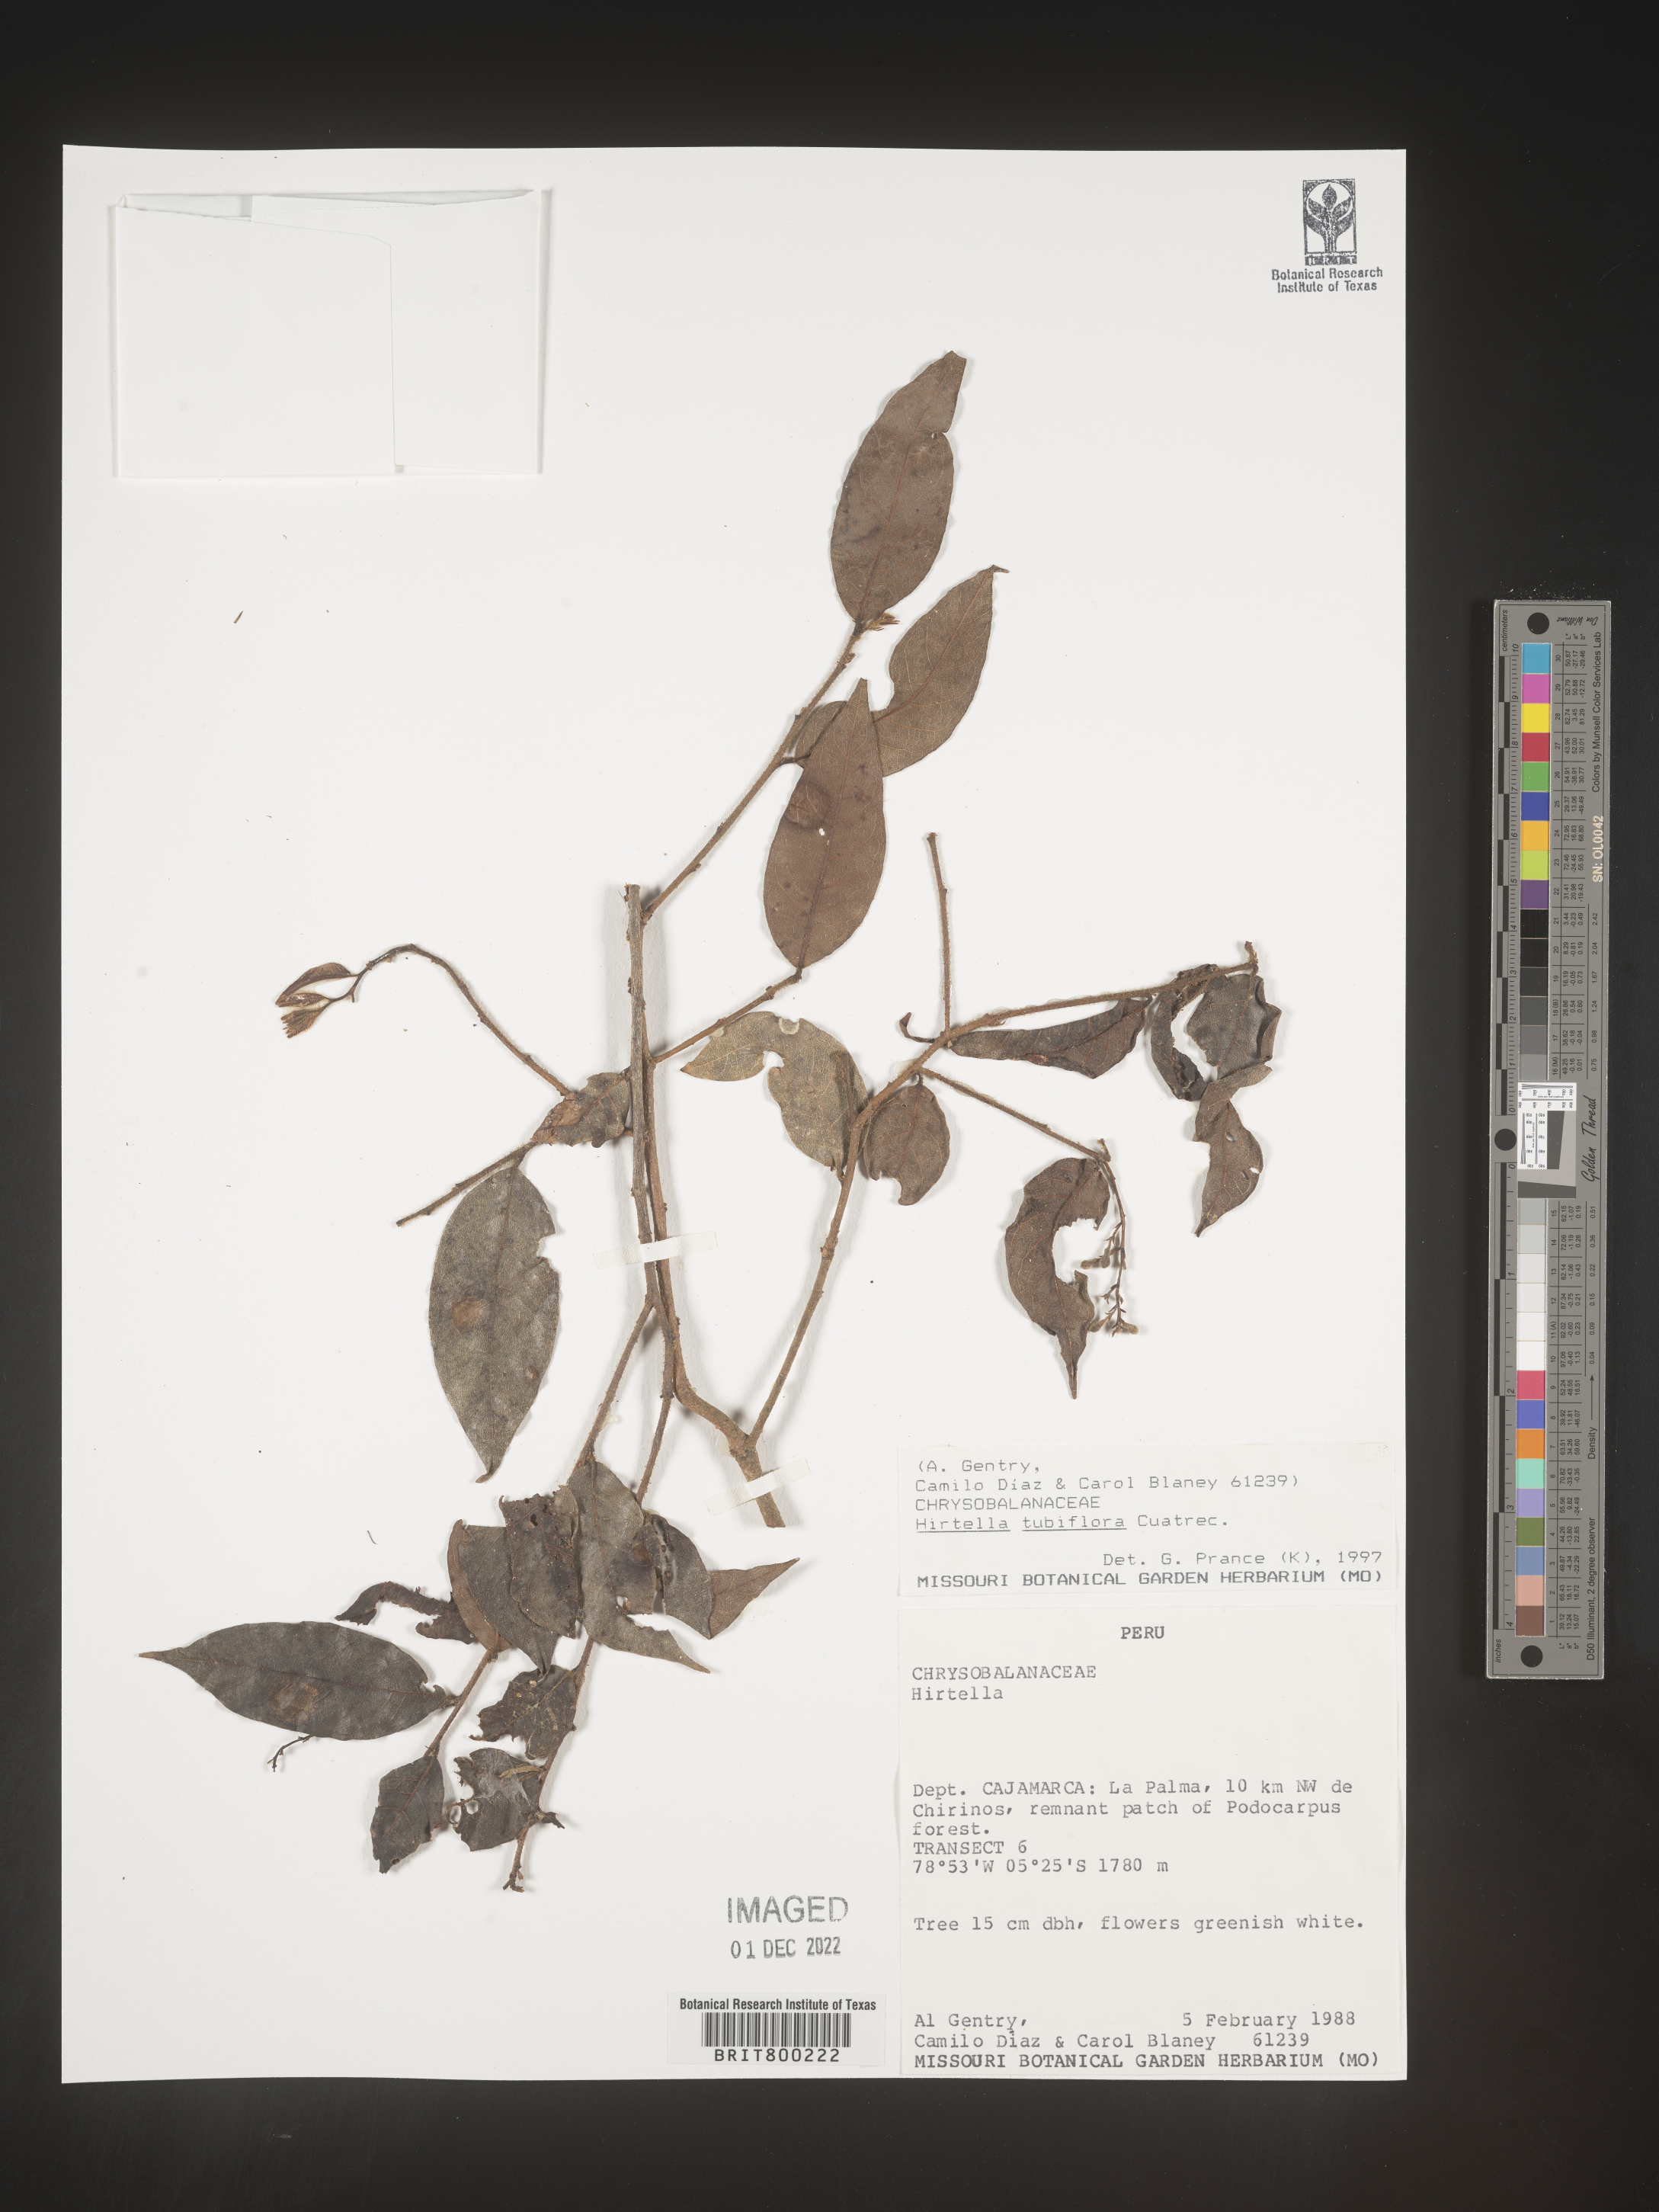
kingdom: Plantae
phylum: Tracheophyta
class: Magnoliopsida
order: Malpighiales
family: Chrysobalanaceae
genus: Hirtella
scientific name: Hirtella
